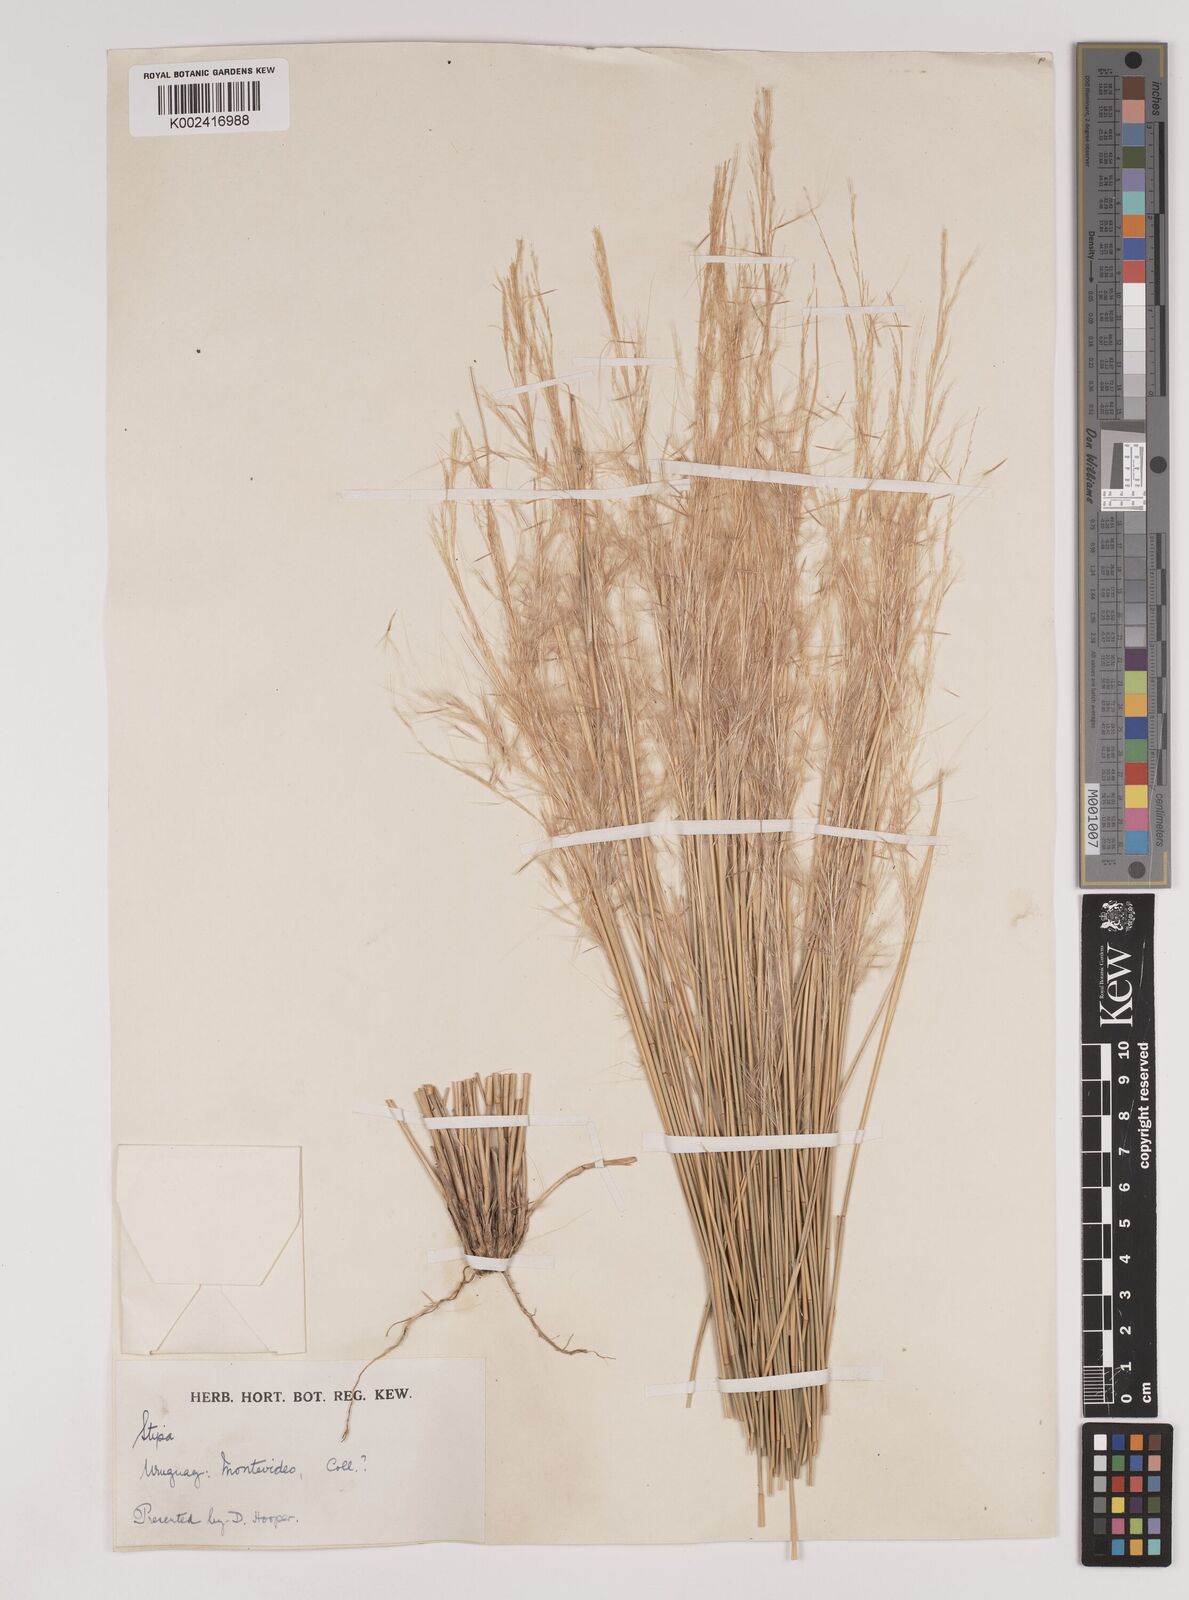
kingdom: Plantae
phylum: Tracheophyta
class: Liliopsida
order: Poales
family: Poaceae
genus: Jarava
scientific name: Jarava plumosa
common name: South american rice grass
